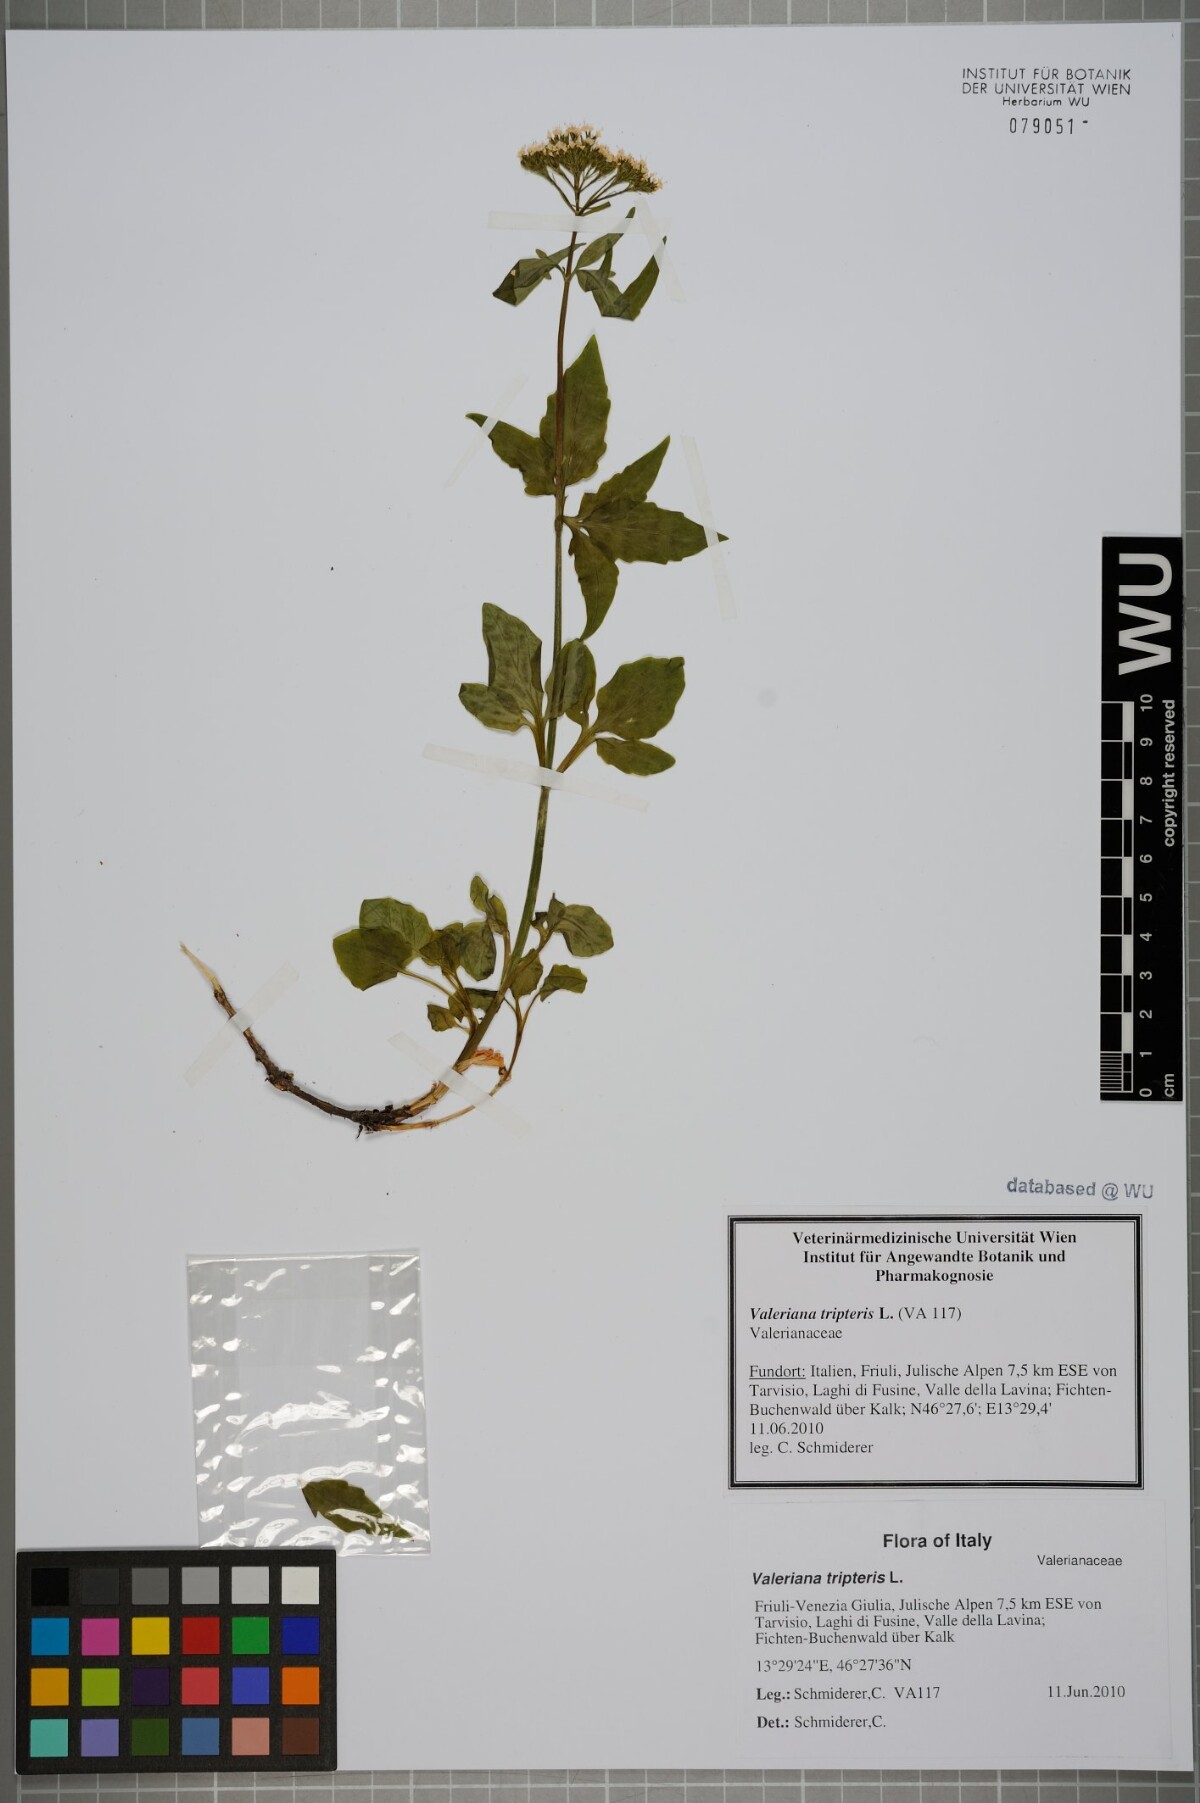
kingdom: Plantae
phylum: Tracheophyta
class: Magnoliopsida
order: Dipsacales
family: Caprifoliaceae
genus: Valeriana
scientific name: Valeriana tripteris
